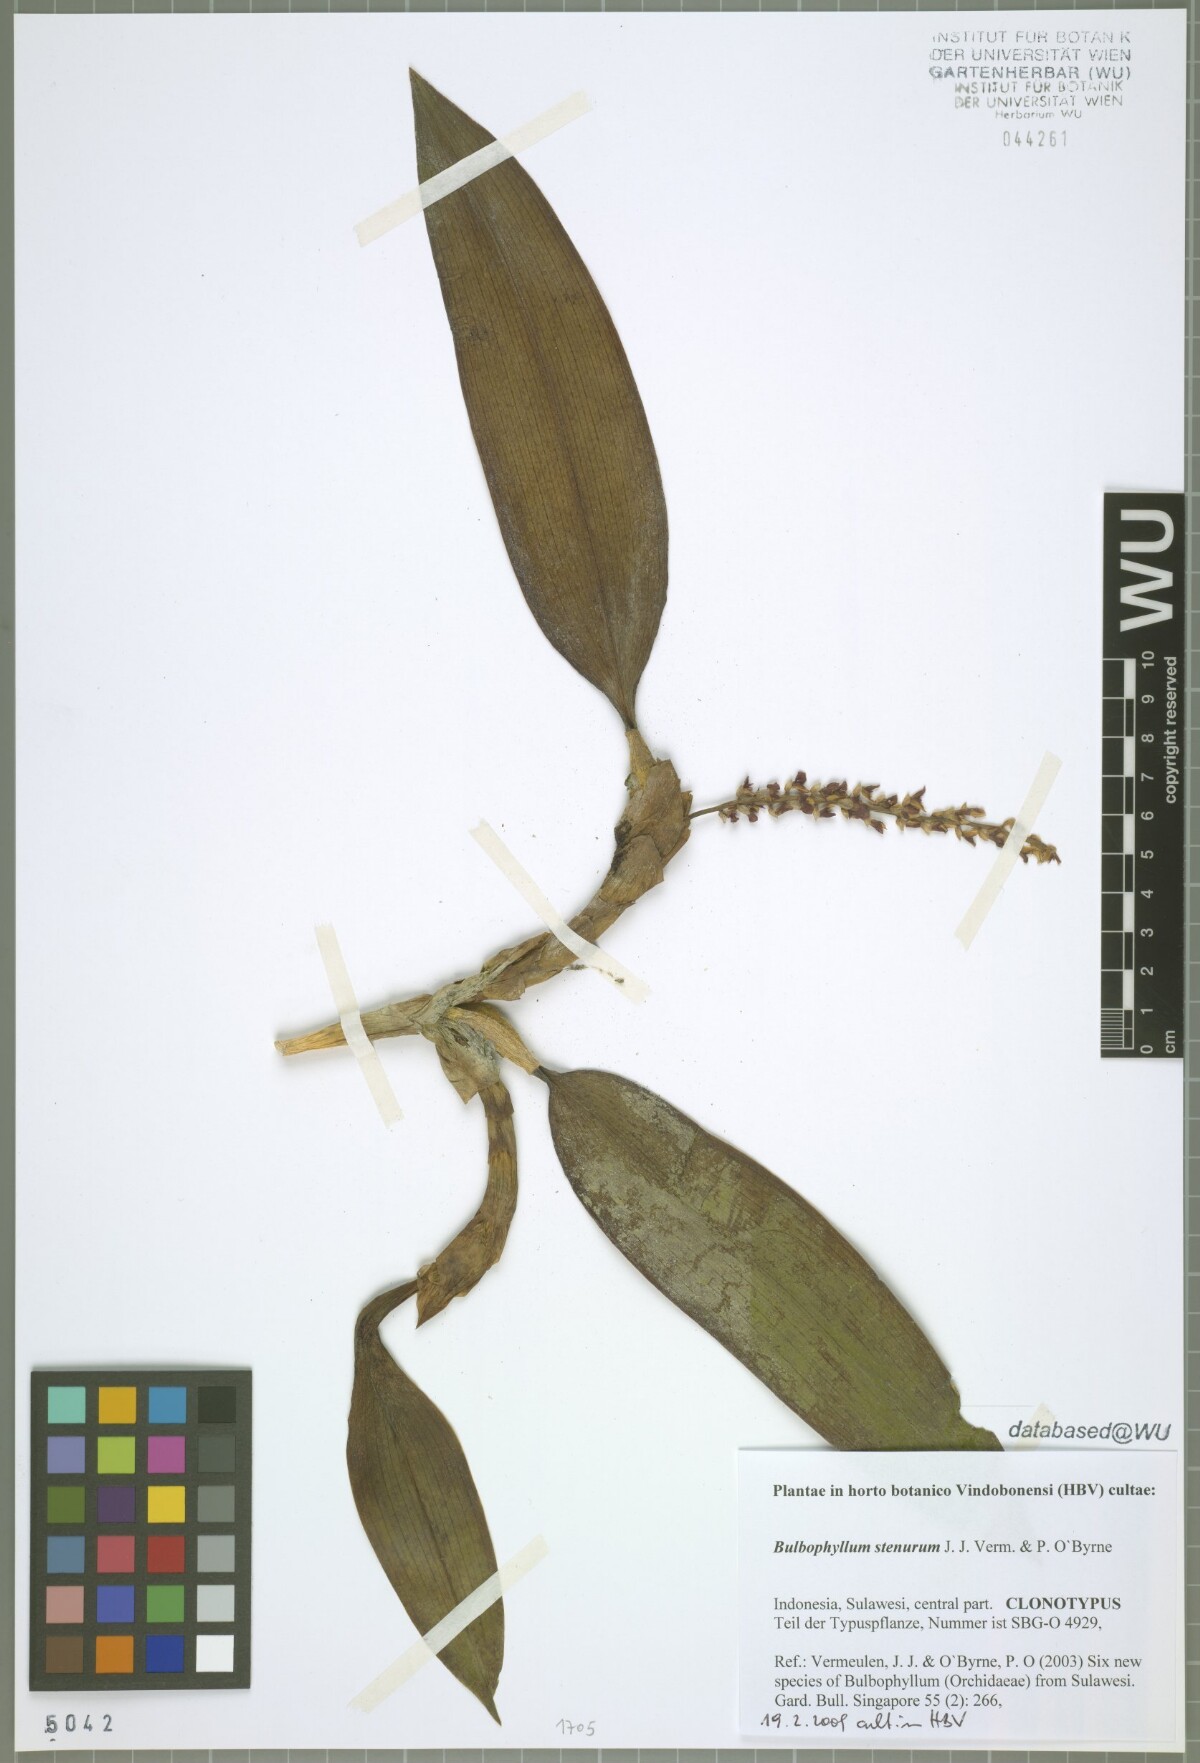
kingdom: Plantae
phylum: Tracheophyta
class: Liliopsida
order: Asparagales
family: Orchidaceae
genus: Bulbophyllum
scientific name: Bulbophyllum stenurum
